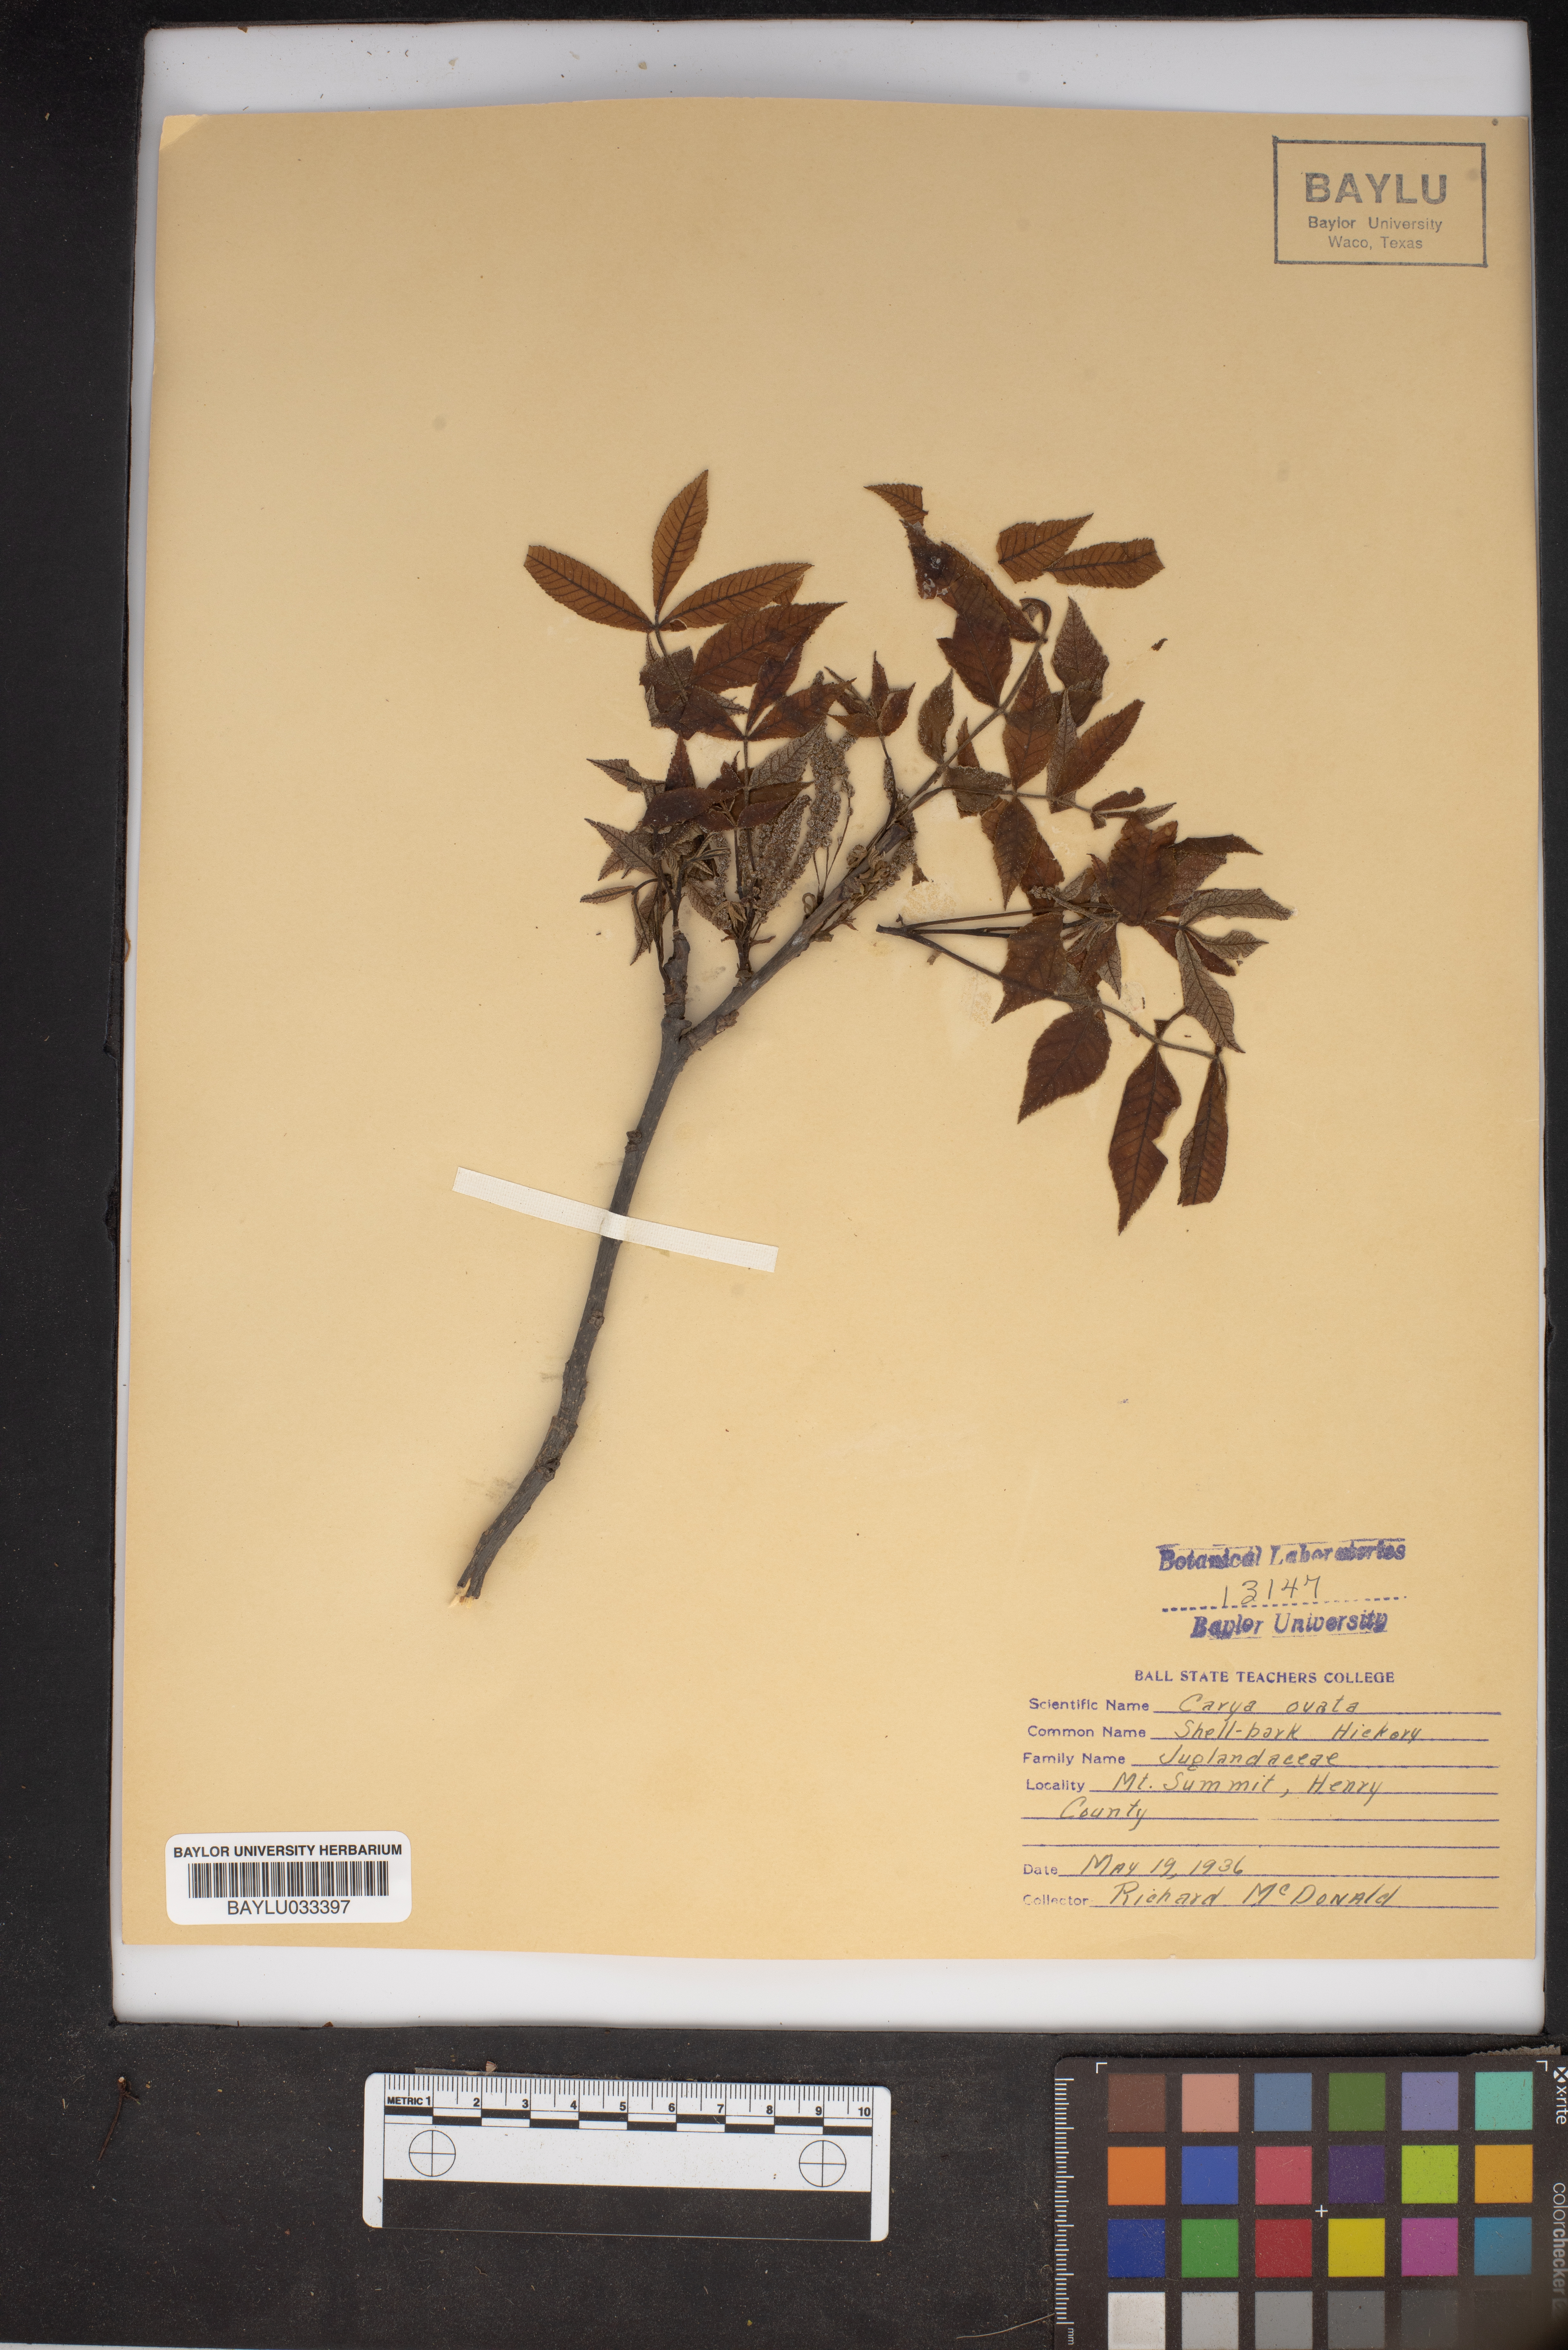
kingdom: Plantae
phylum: Tracheophyta
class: Magnoliopsida
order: Fagales
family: Juglandaceae
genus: Carya
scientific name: Carya ovata
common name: Shagbark hickory
